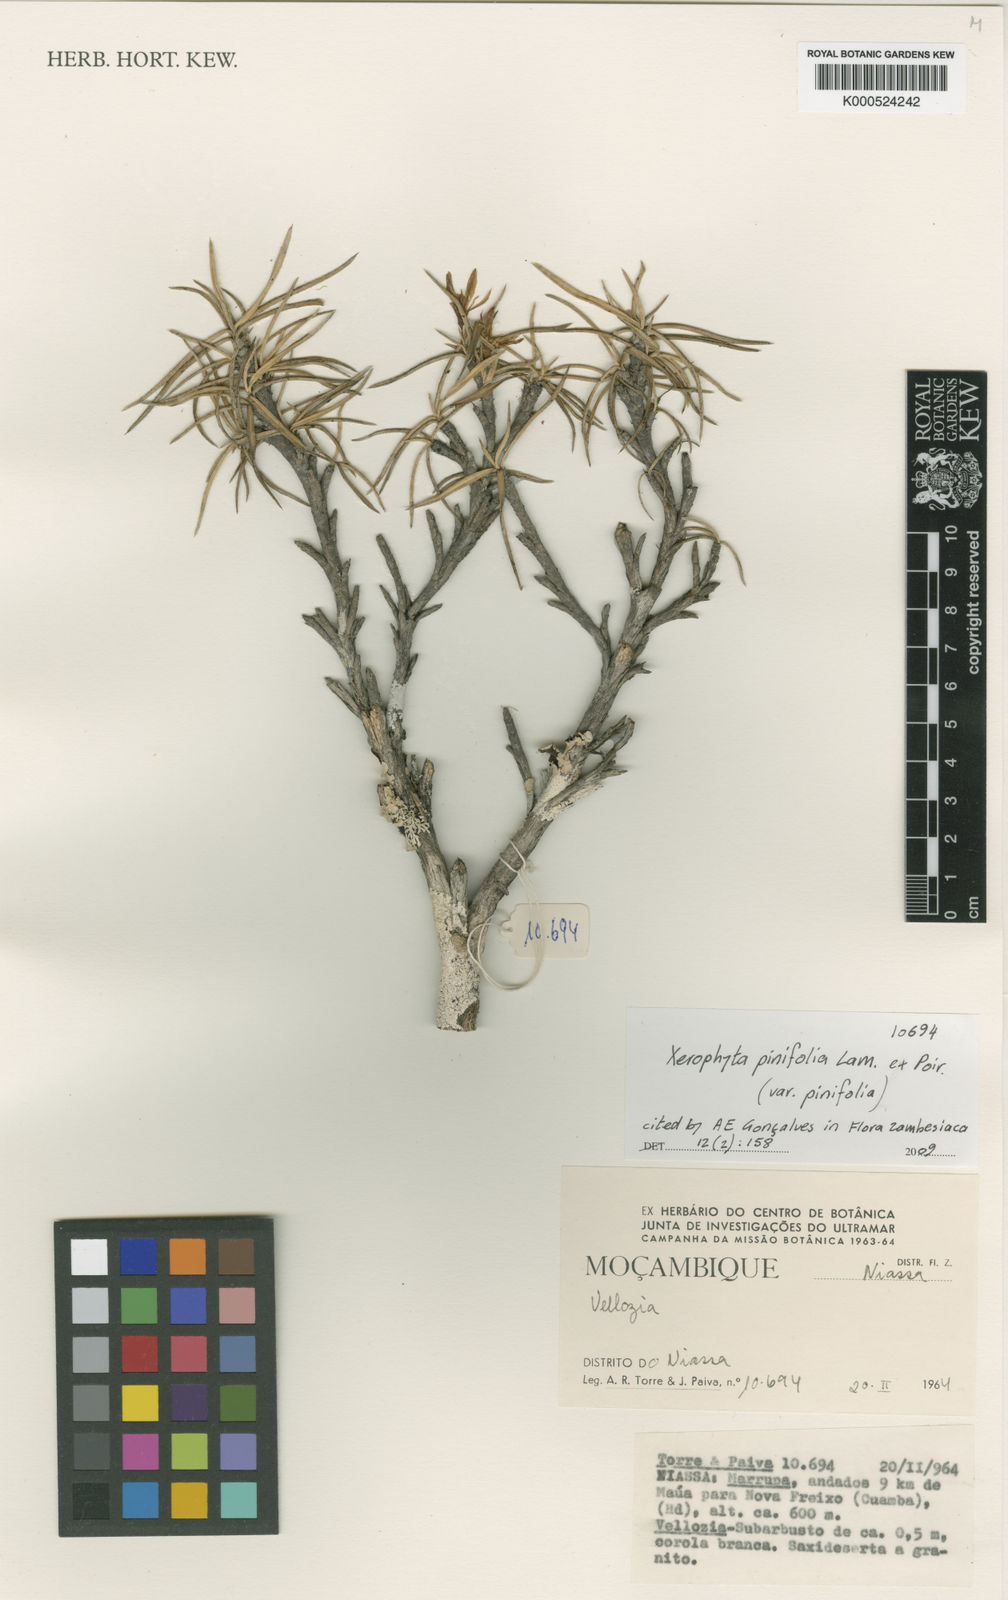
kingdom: Plantae
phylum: Tracheophyta
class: Liliopsida
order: Pandanales
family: Velloziaceae
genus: Xerophyta
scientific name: Xerophyta pinifolia
